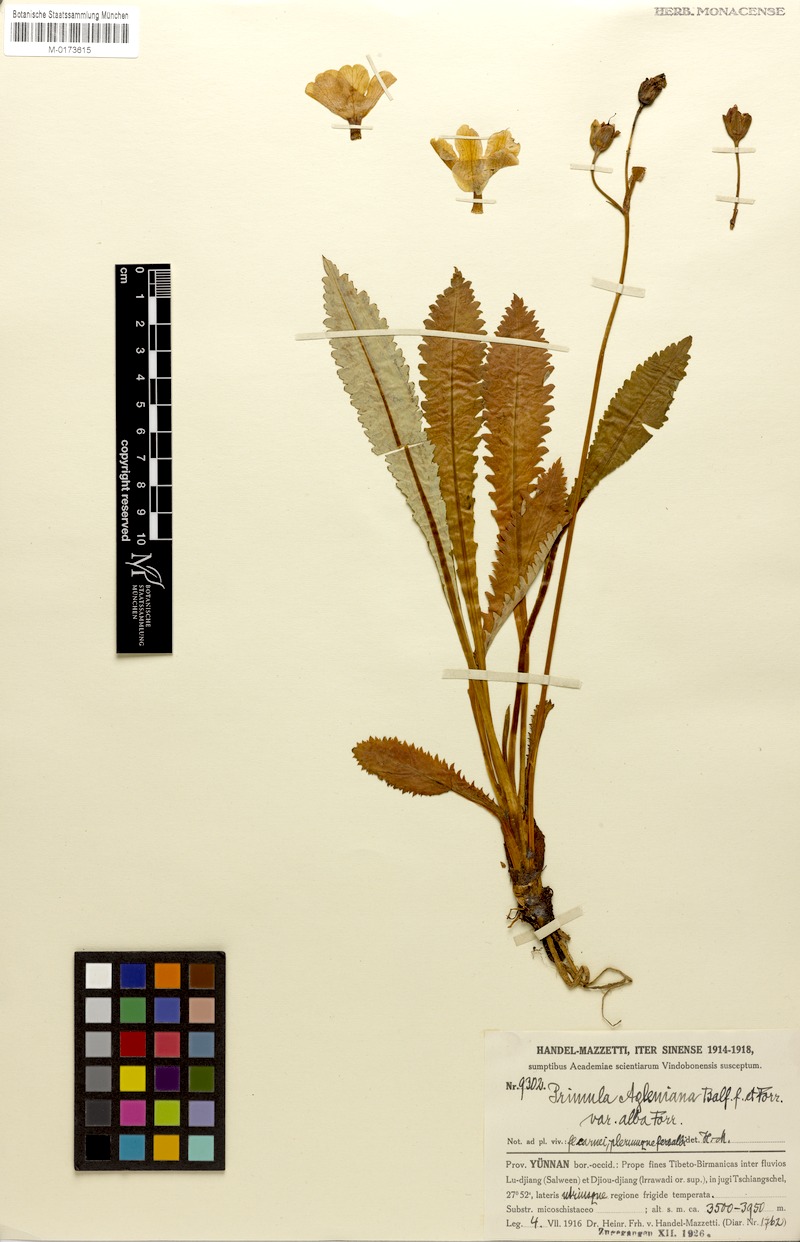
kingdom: Plantae
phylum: Tracheophyta
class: Magnoliopsida
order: Ericales
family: Primulaceae
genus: Primula
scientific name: Primula agleniana
